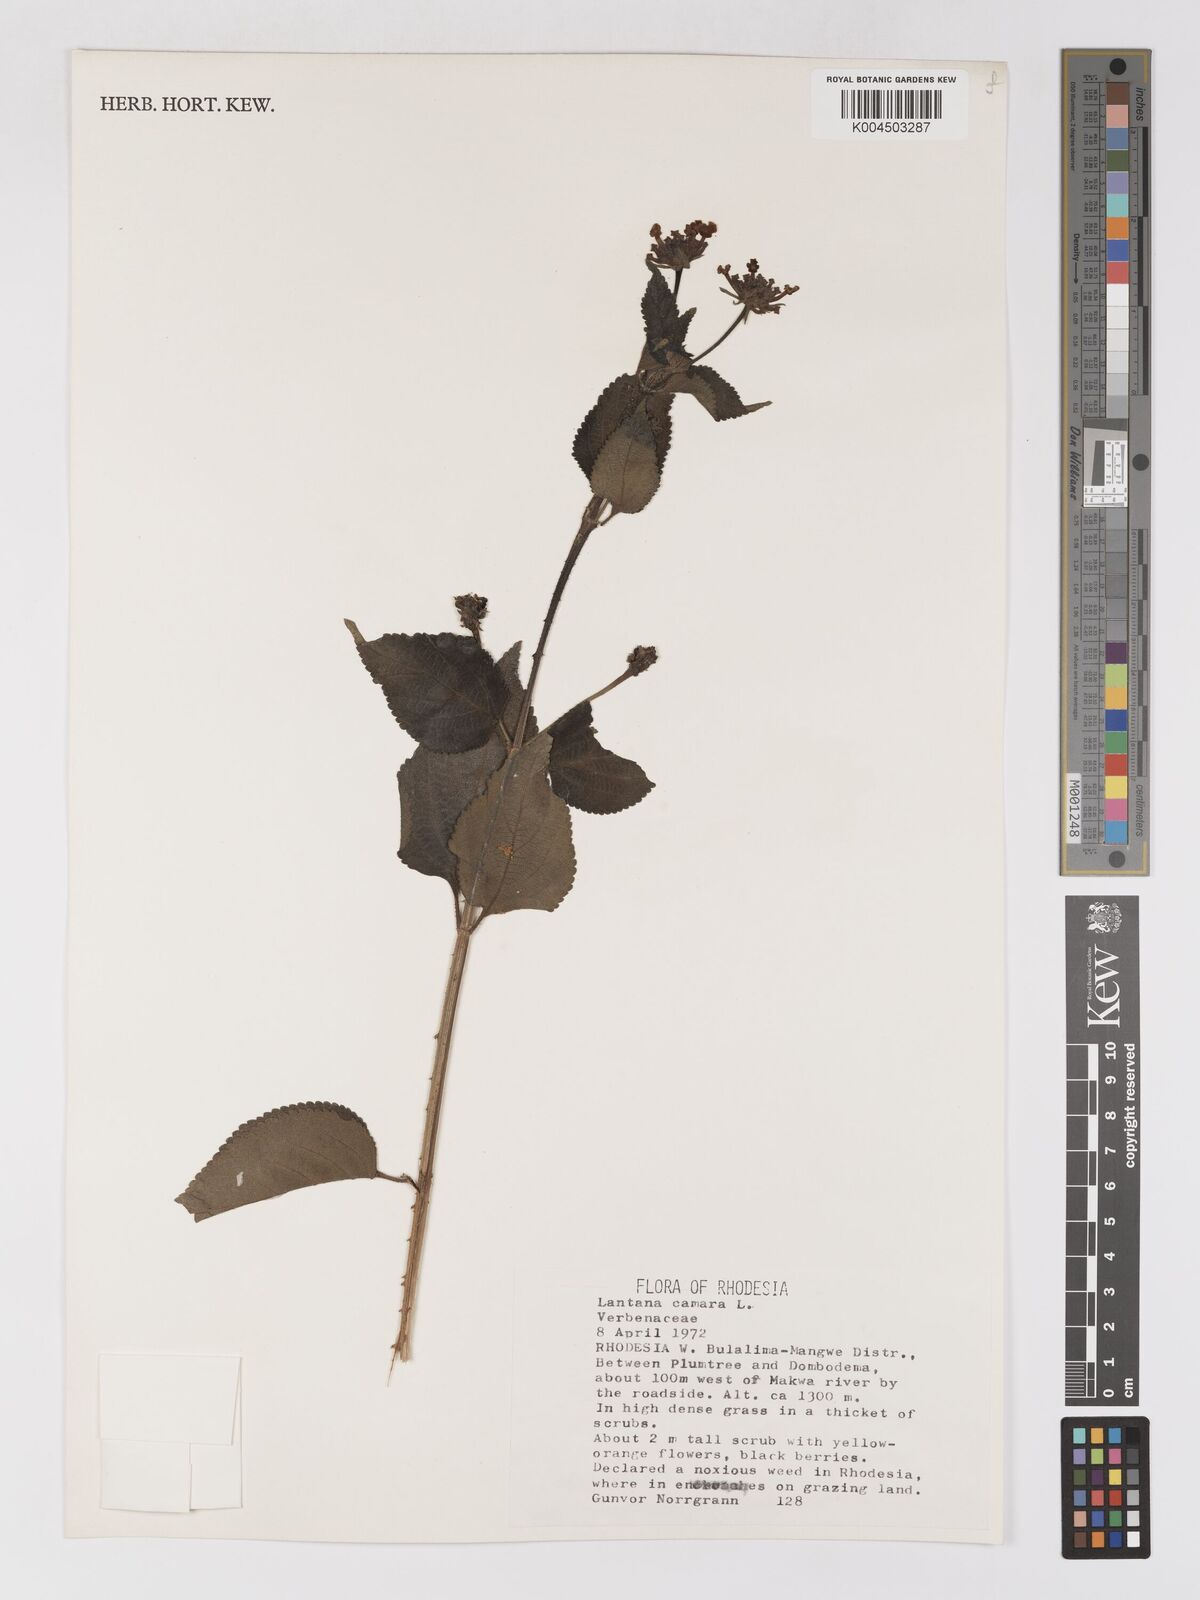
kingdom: Plantae
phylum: Tracheophyta
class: Magnoliopsida
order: Lamiales
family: Verbenaceae
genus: Lantana
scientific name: Lantana camara
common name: Lantana
